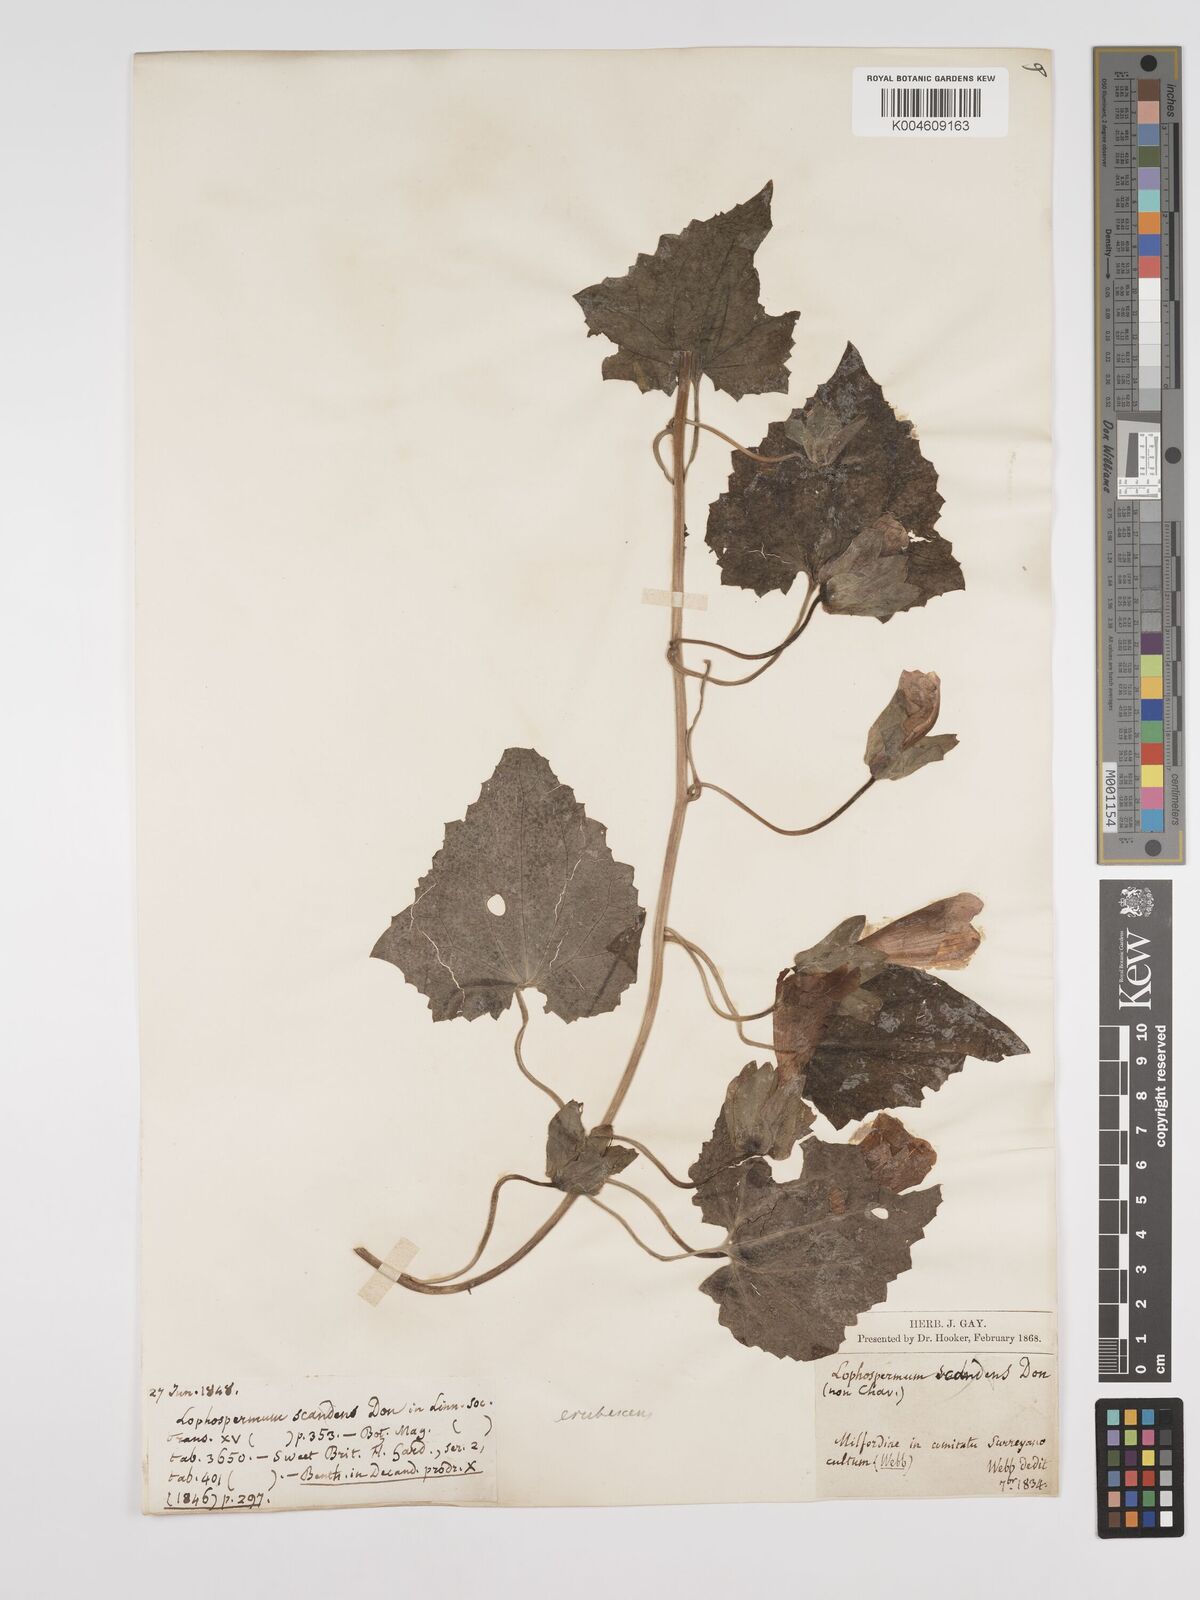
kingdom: Plantae
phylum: Tracheophyta
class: Magnoliopsida
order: Lamiales
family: Plantaginaceae
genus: Lophospermum
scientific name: Lophospermum erubescens
